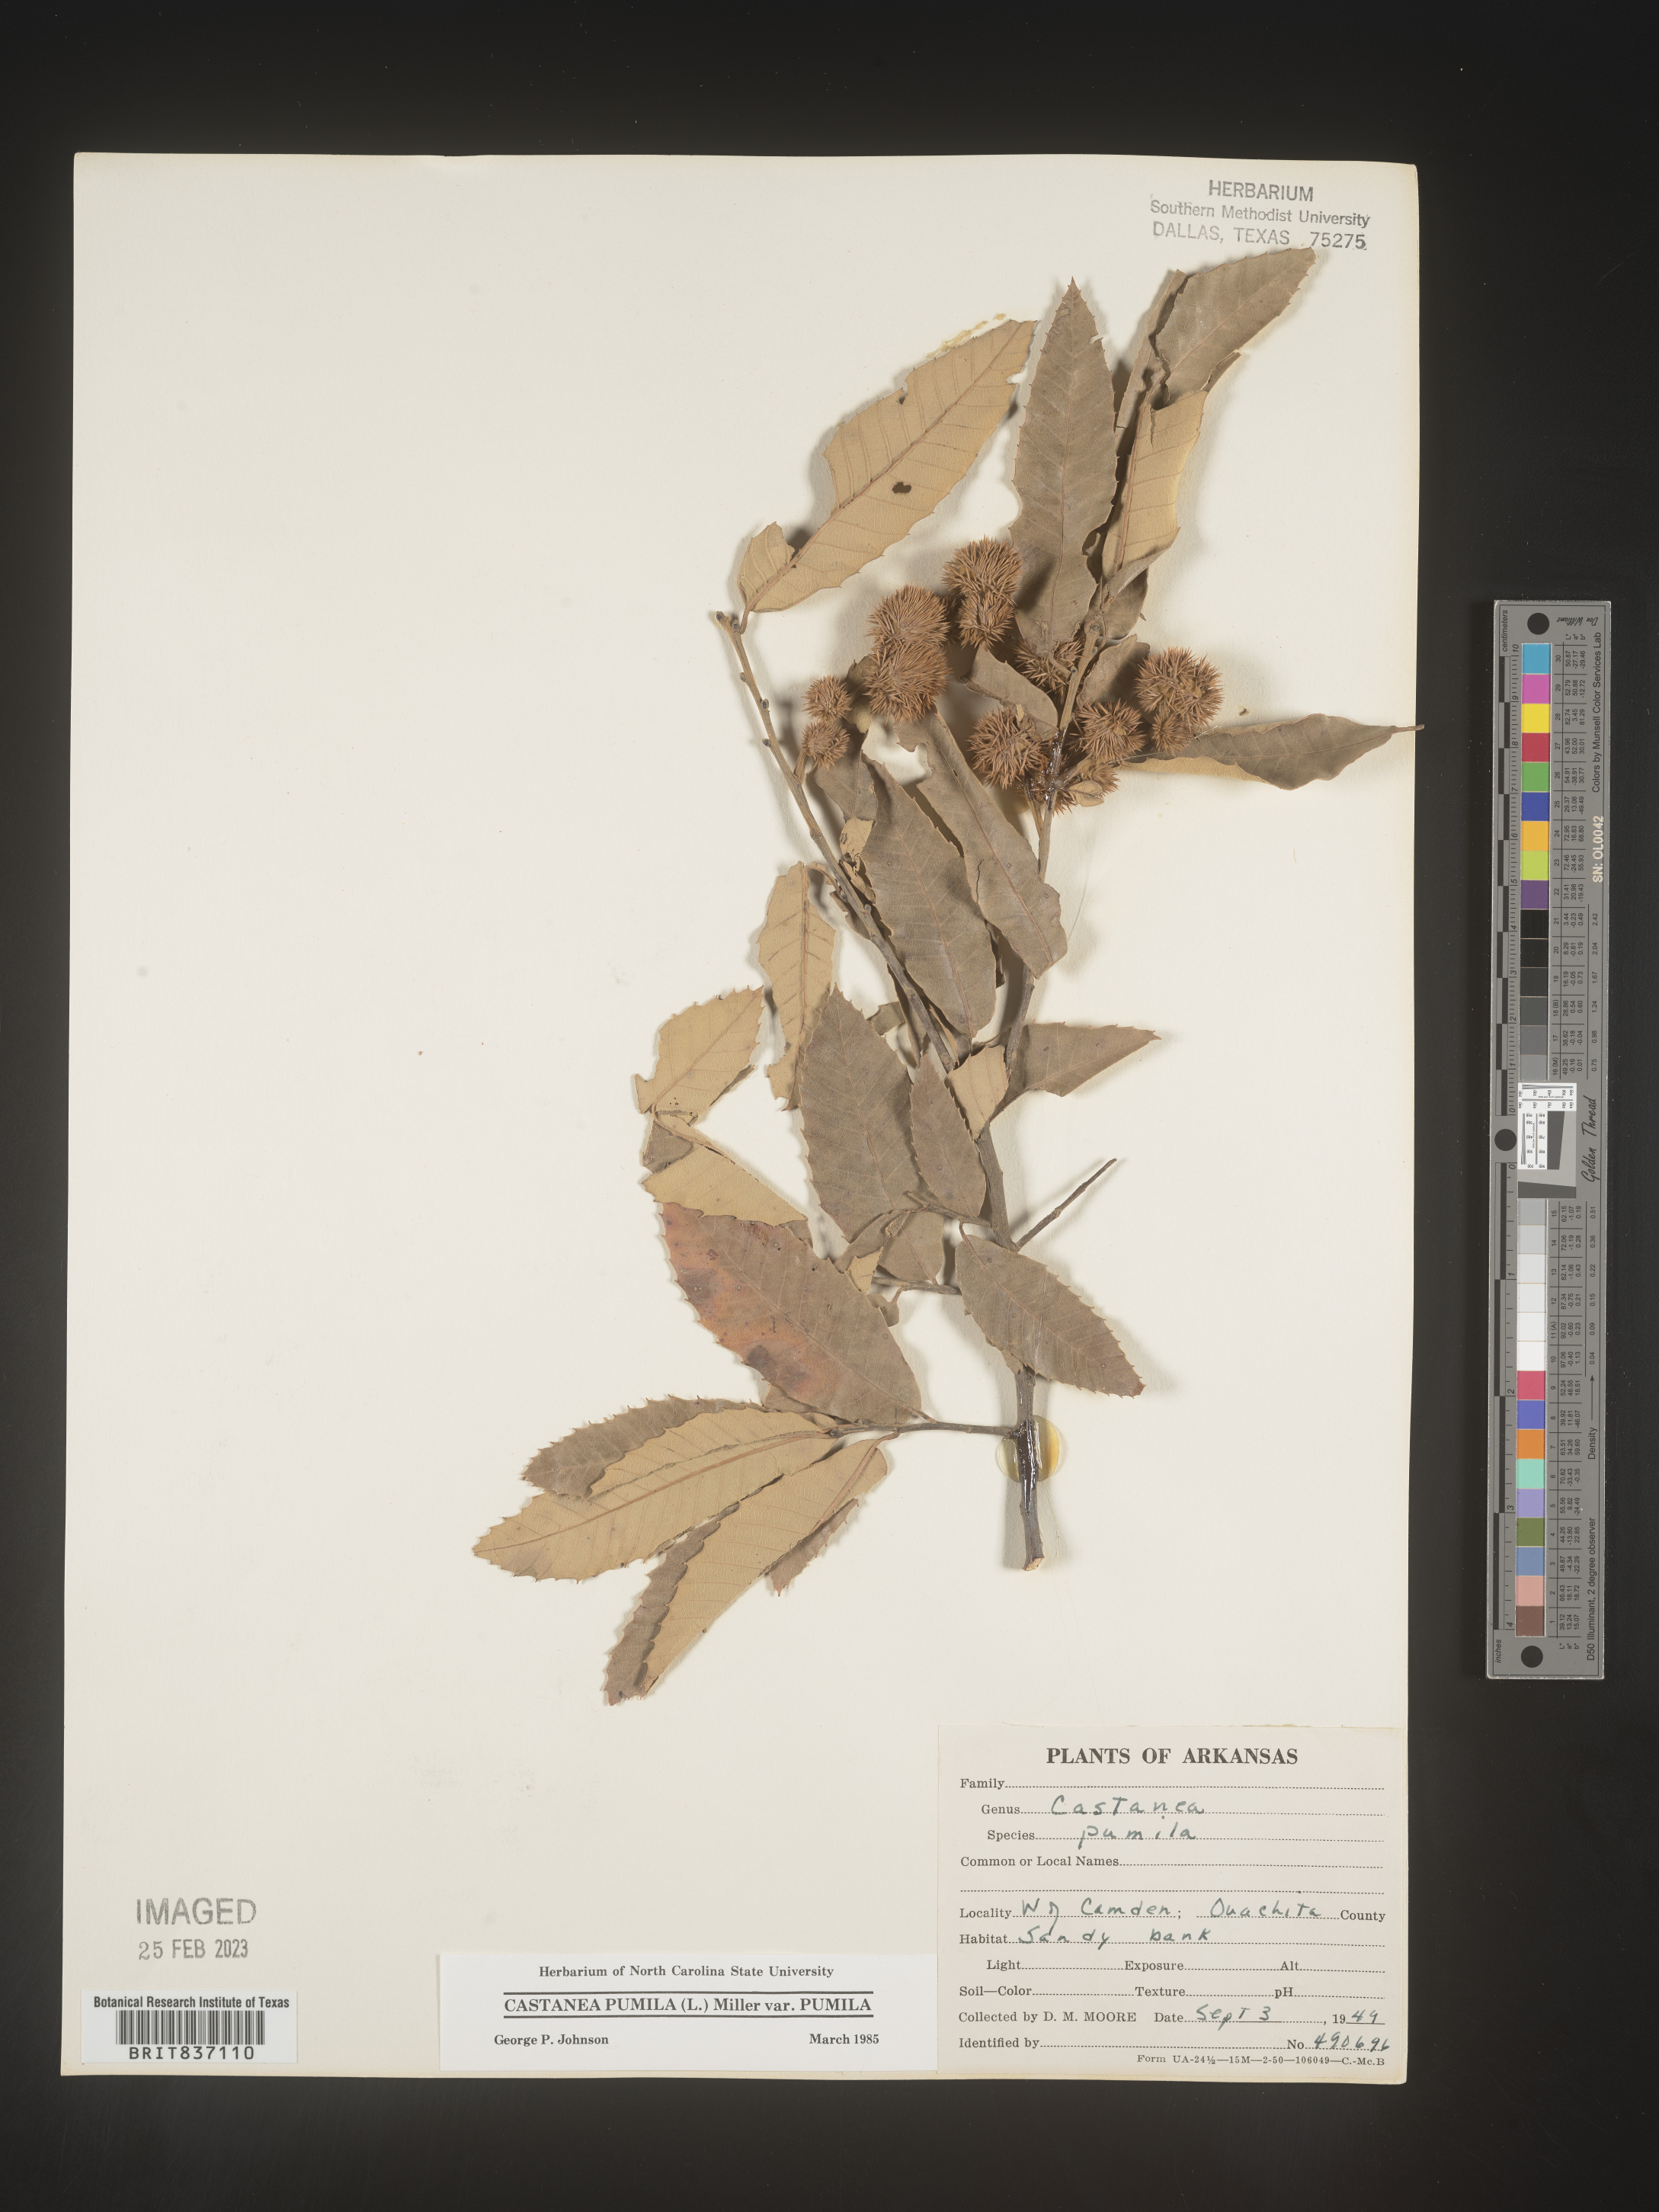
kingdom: Plantae
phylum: Tracheophyta
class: Magnoliopsida
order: Fagales
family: Fagaceae
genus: Castanea
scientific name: Castanea pumila
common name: Chinkapin
